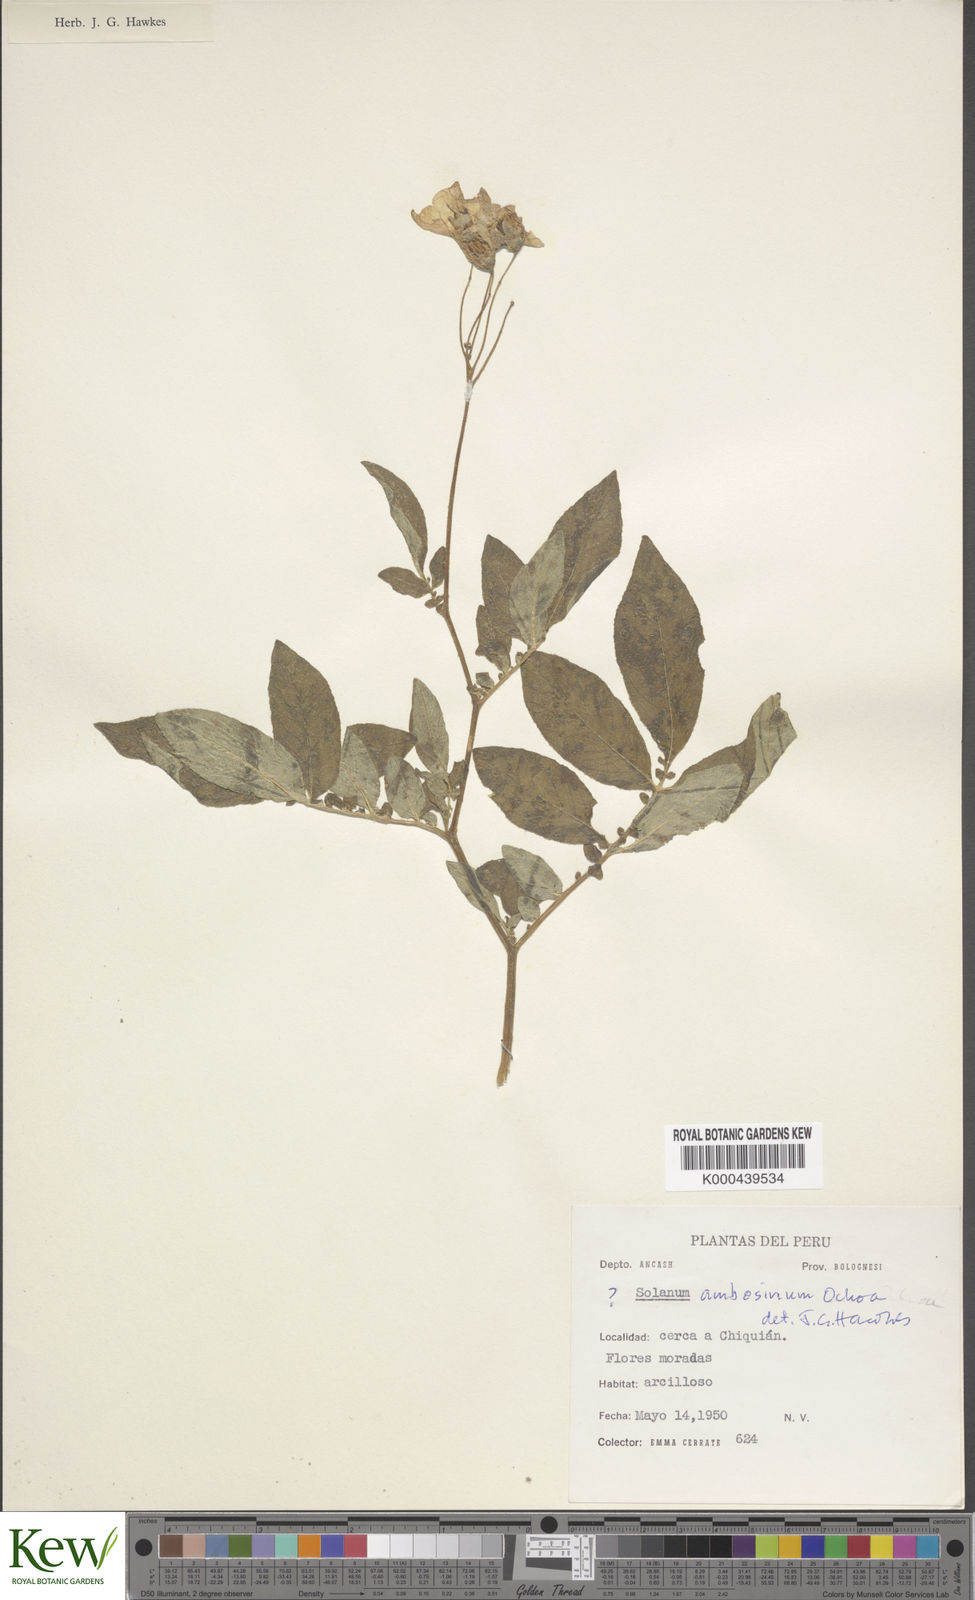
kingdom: Plantae
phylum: Tracheophyta
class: Magnoliopsida
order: Solanales
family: Solanaceae
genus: Solanum
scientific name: Solanum multiinterruptum
